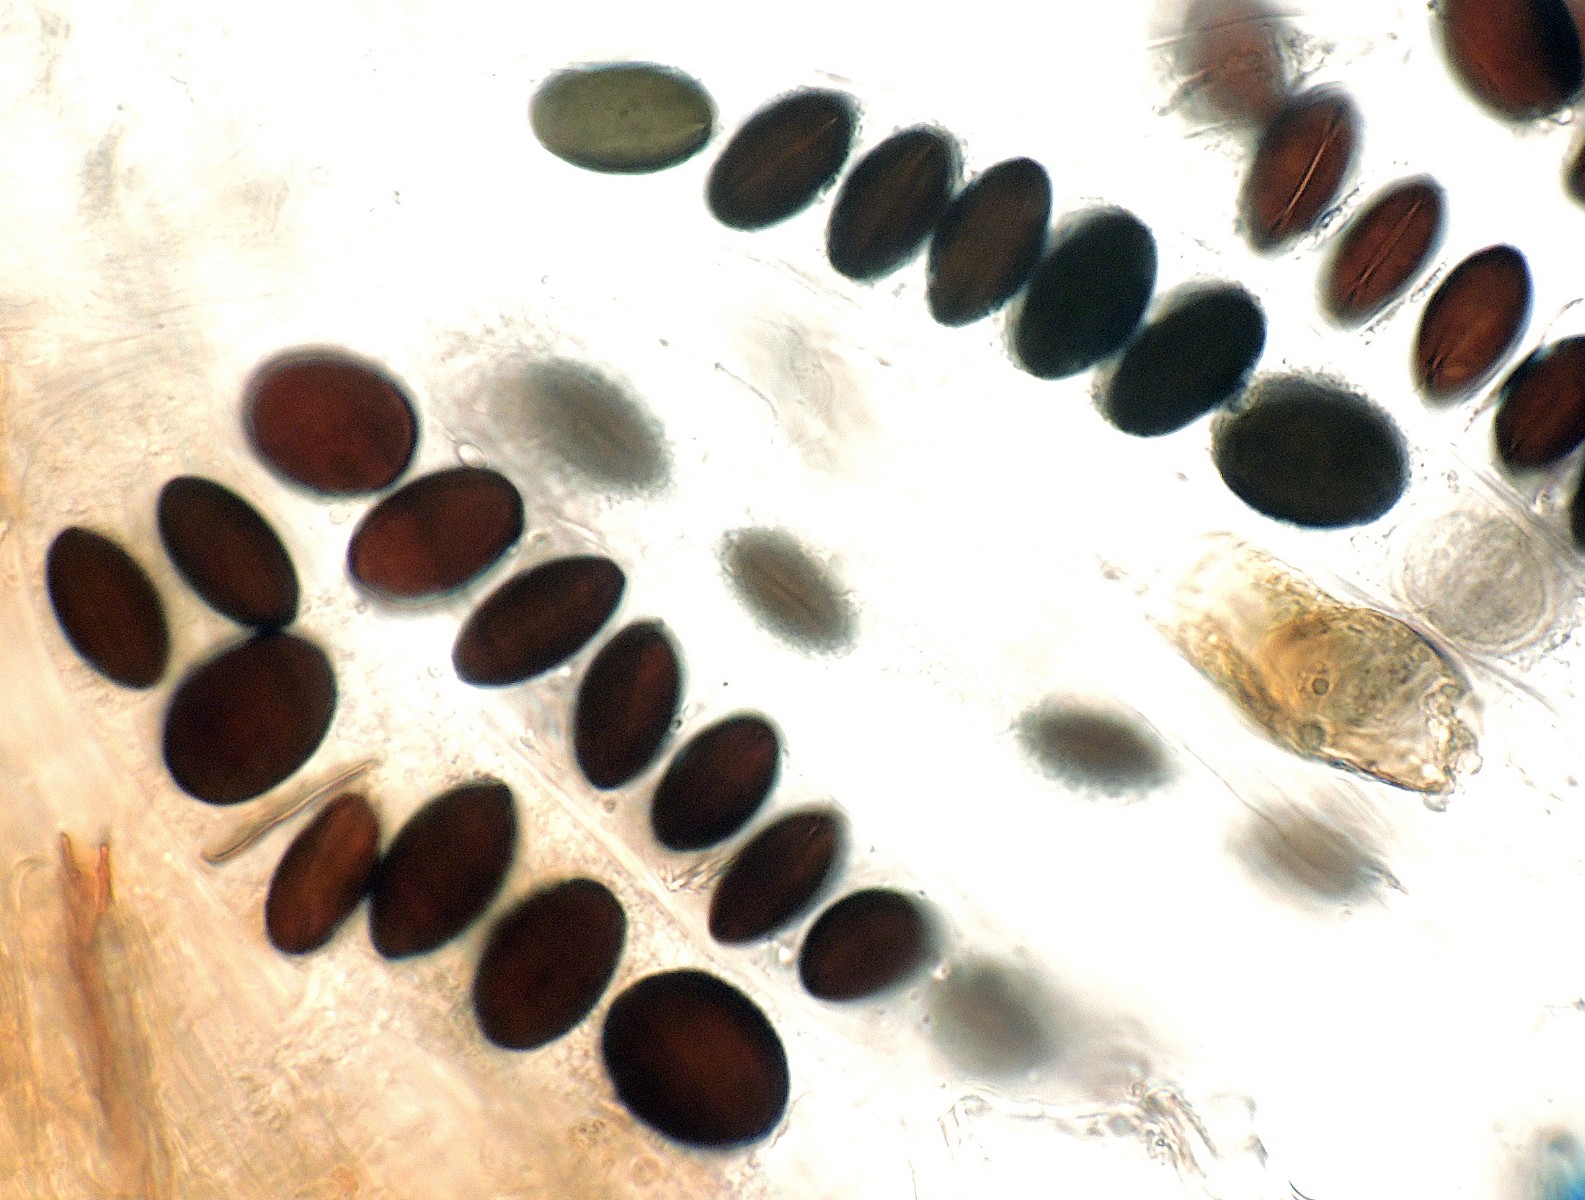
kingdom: Fungi
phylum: Ascomycota
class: Sordariomycetes
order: Coniochaetales
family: Coniochaetaceae
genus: Coniochaeta
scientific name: Coniochaeta scatigena
